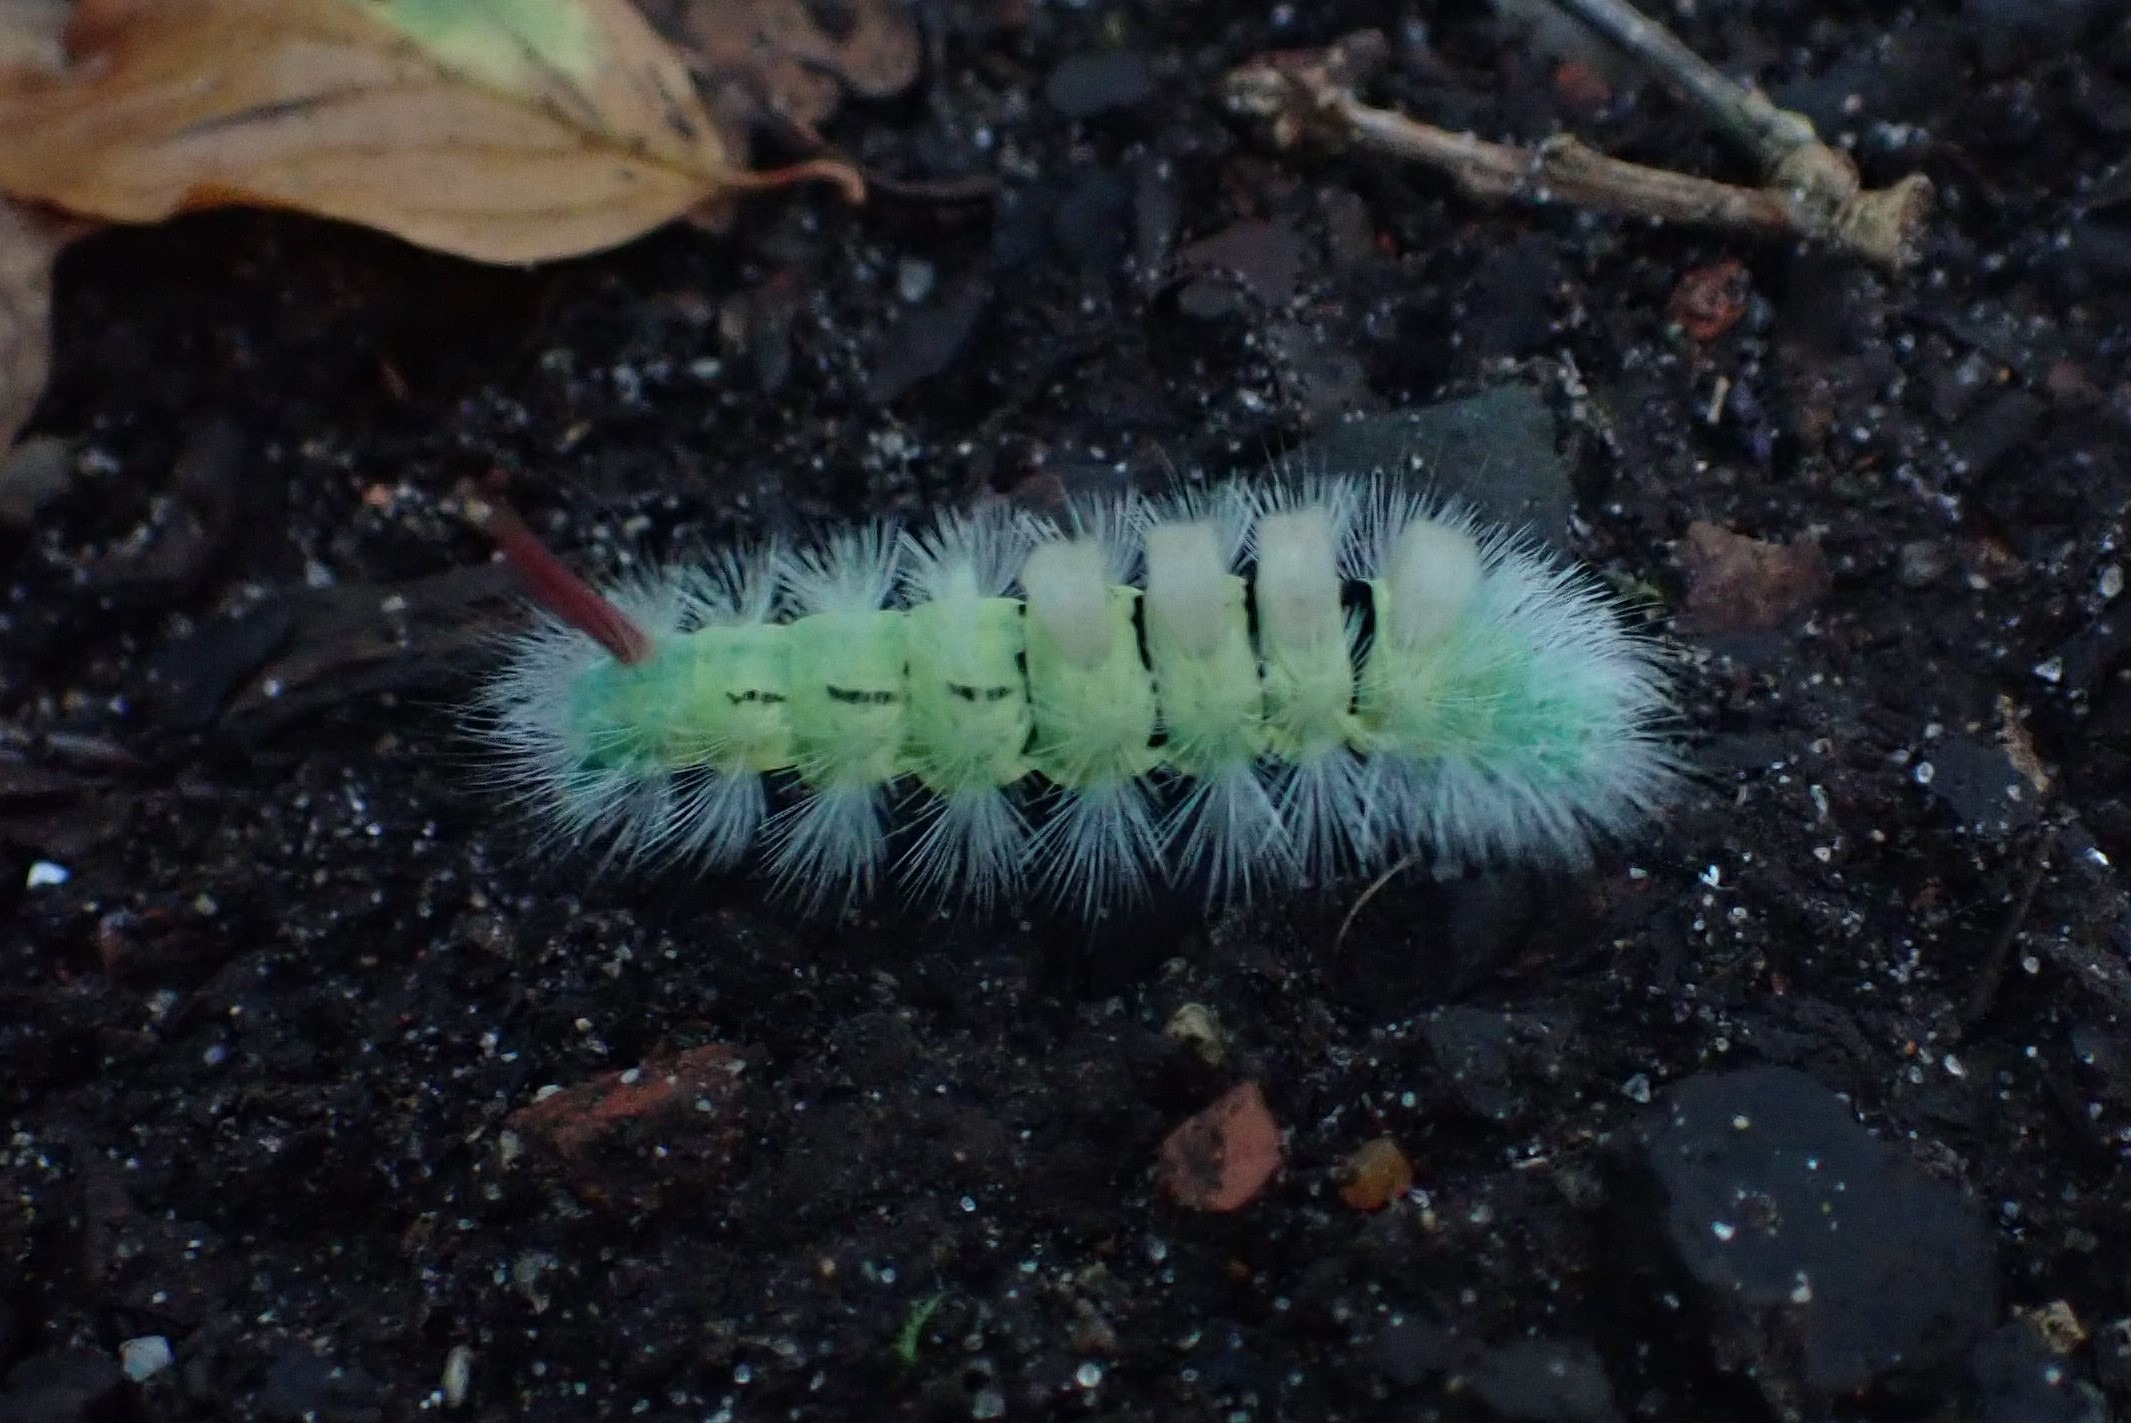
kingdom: Animalia
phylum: Arthropoda
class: Insecta
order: Lepidoptera
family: Erebidae
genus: Calliteara
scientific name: Calliteara pudibunda
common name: Bøgenonne
